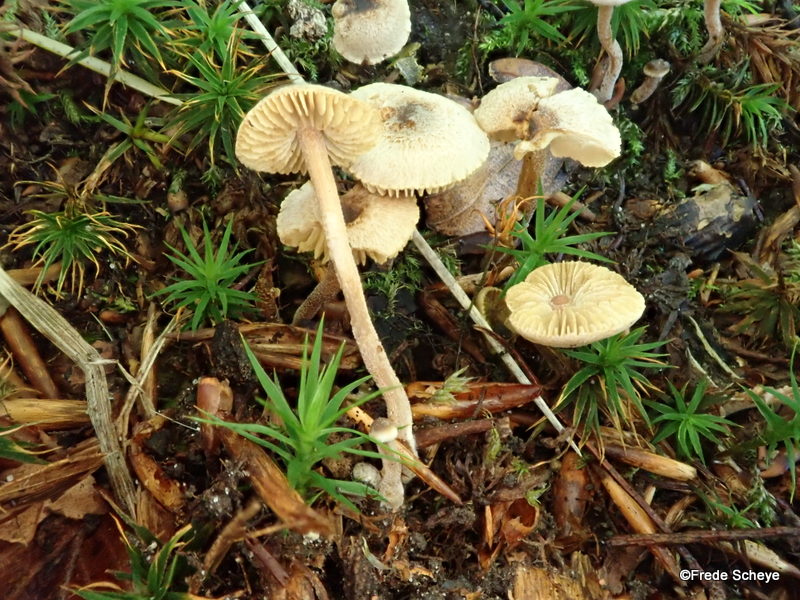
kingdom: Fungi
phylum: Basidiomycota
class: Agaricomycetes
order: Agaricales
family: Inocybaceae
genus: Inocybe
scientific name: Inocybe petiginosa
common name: liden trævlhat
